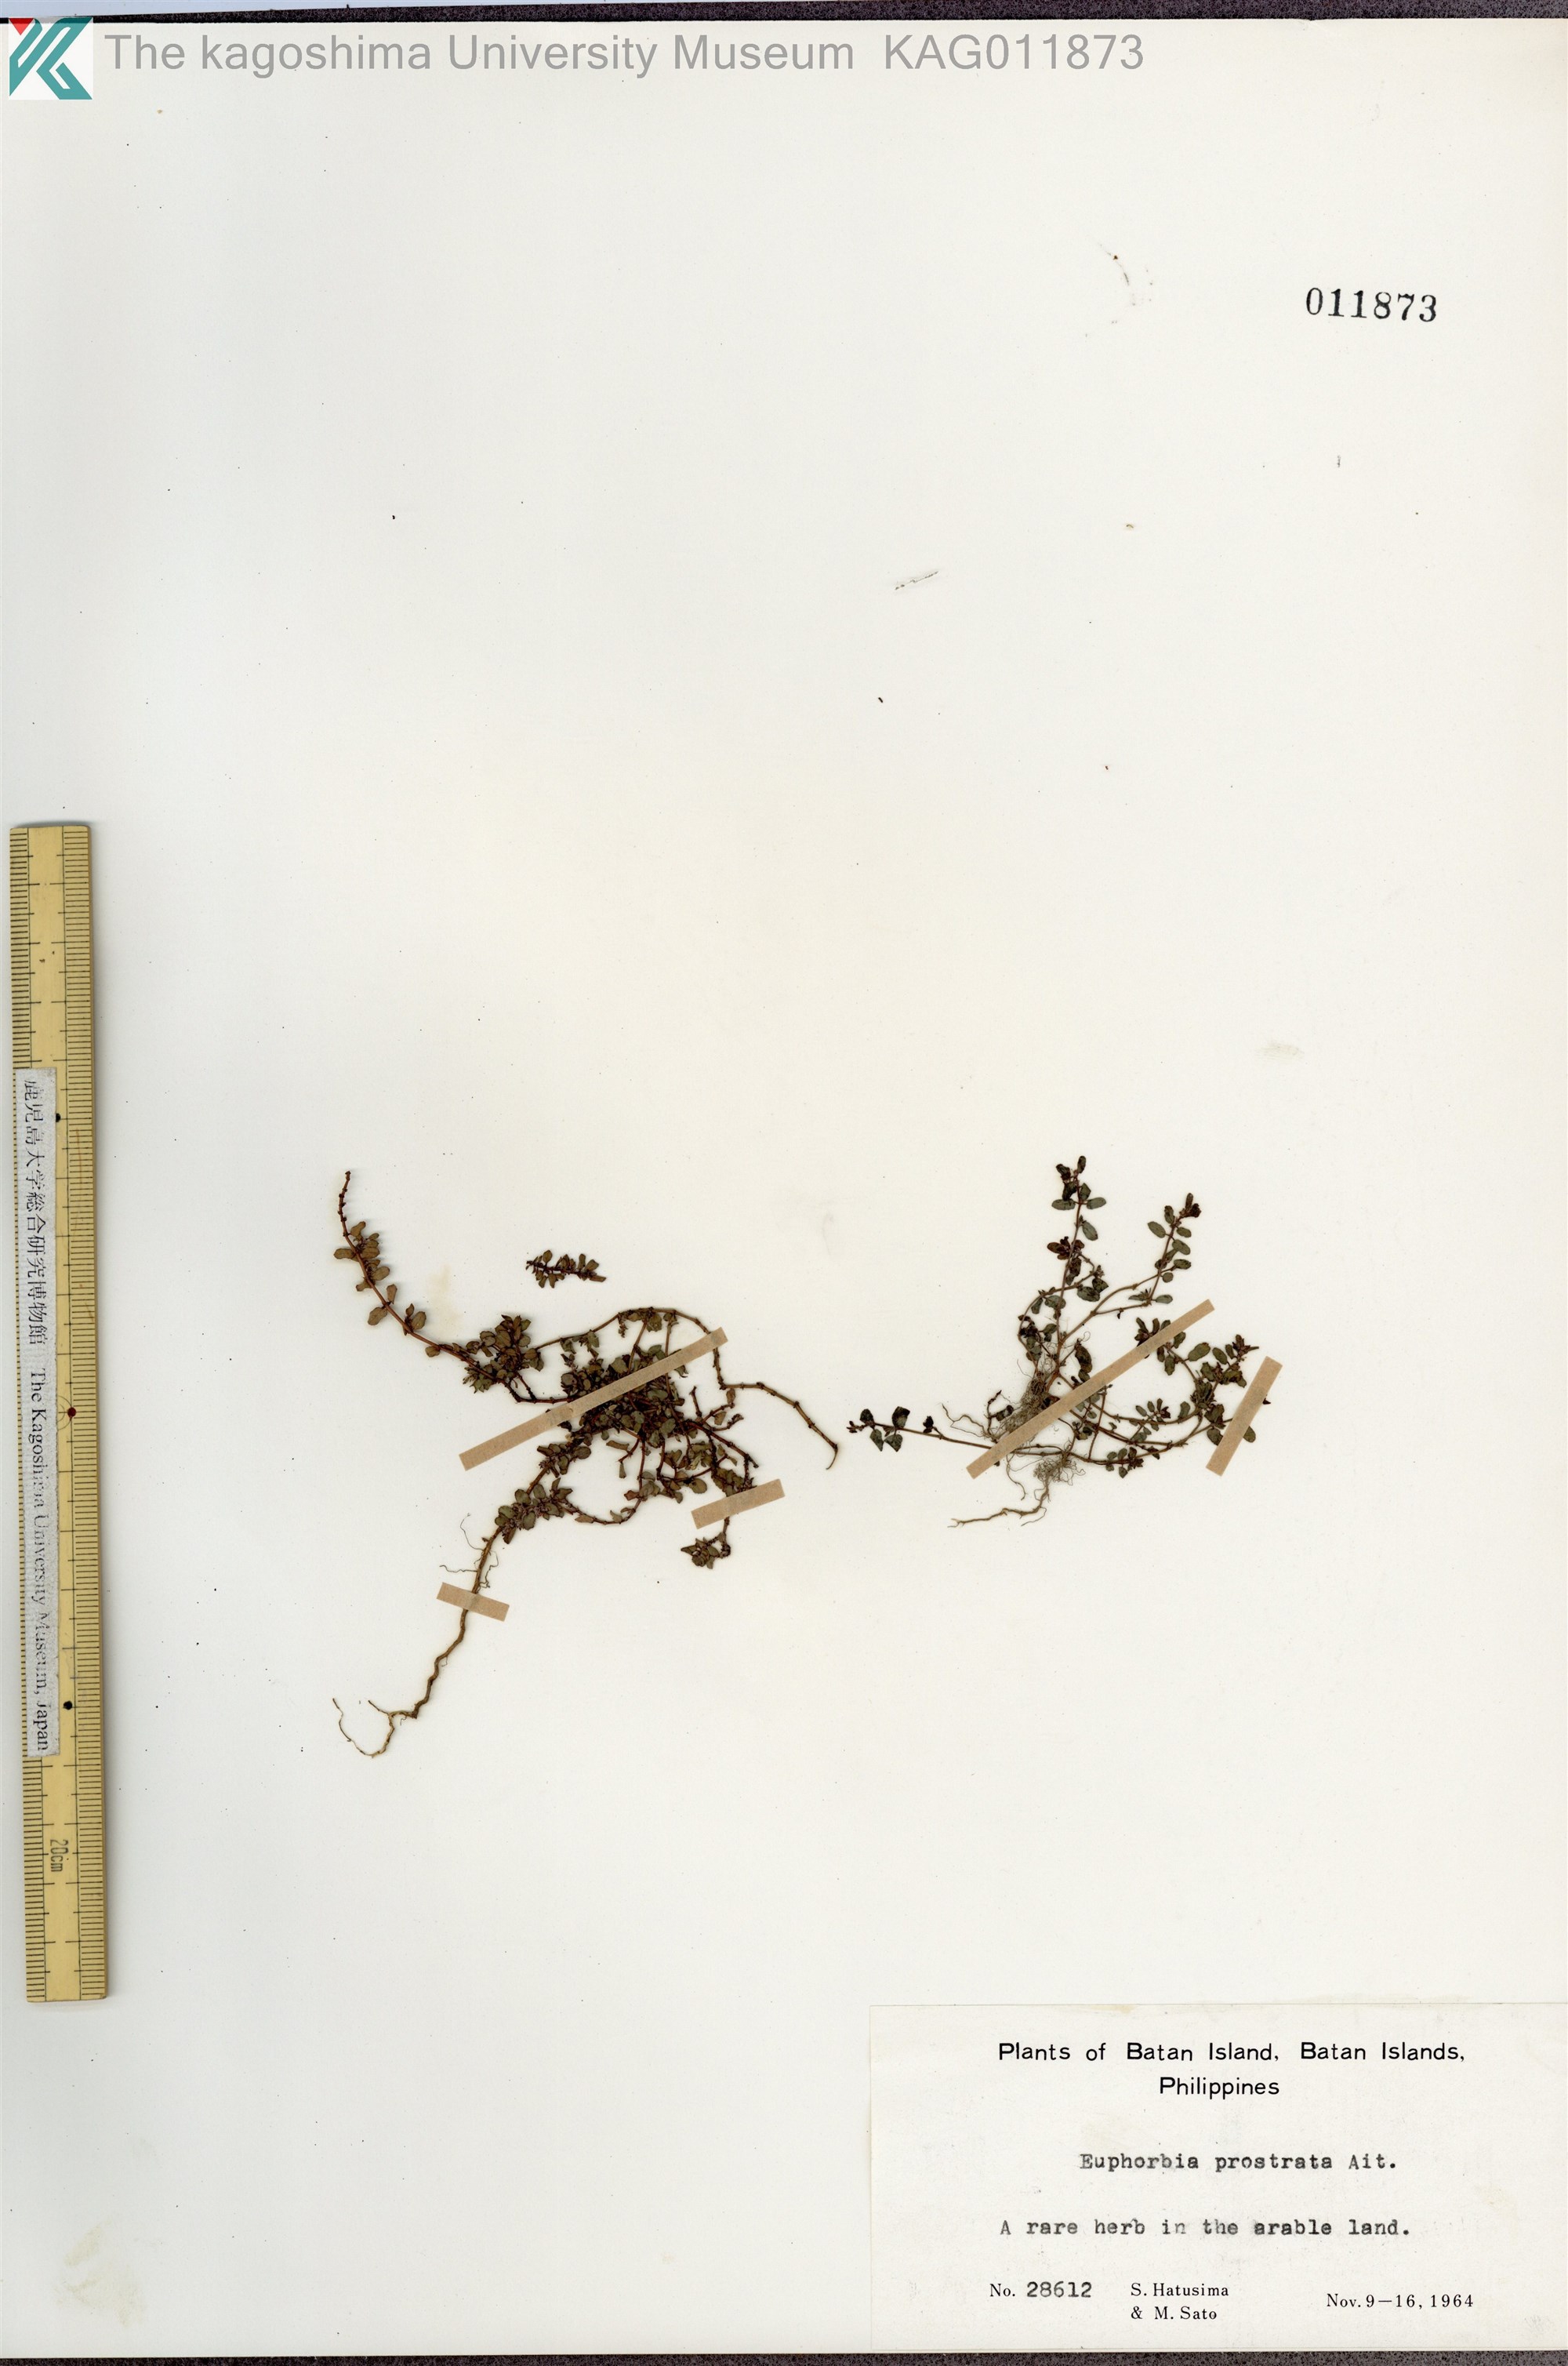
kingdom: Plantae
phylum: Tracheophyta
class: Magnoliopsida
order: Malpighiales
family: Euphorbiaceae
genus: Euphorbia
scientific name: Euphorbia prostrata
